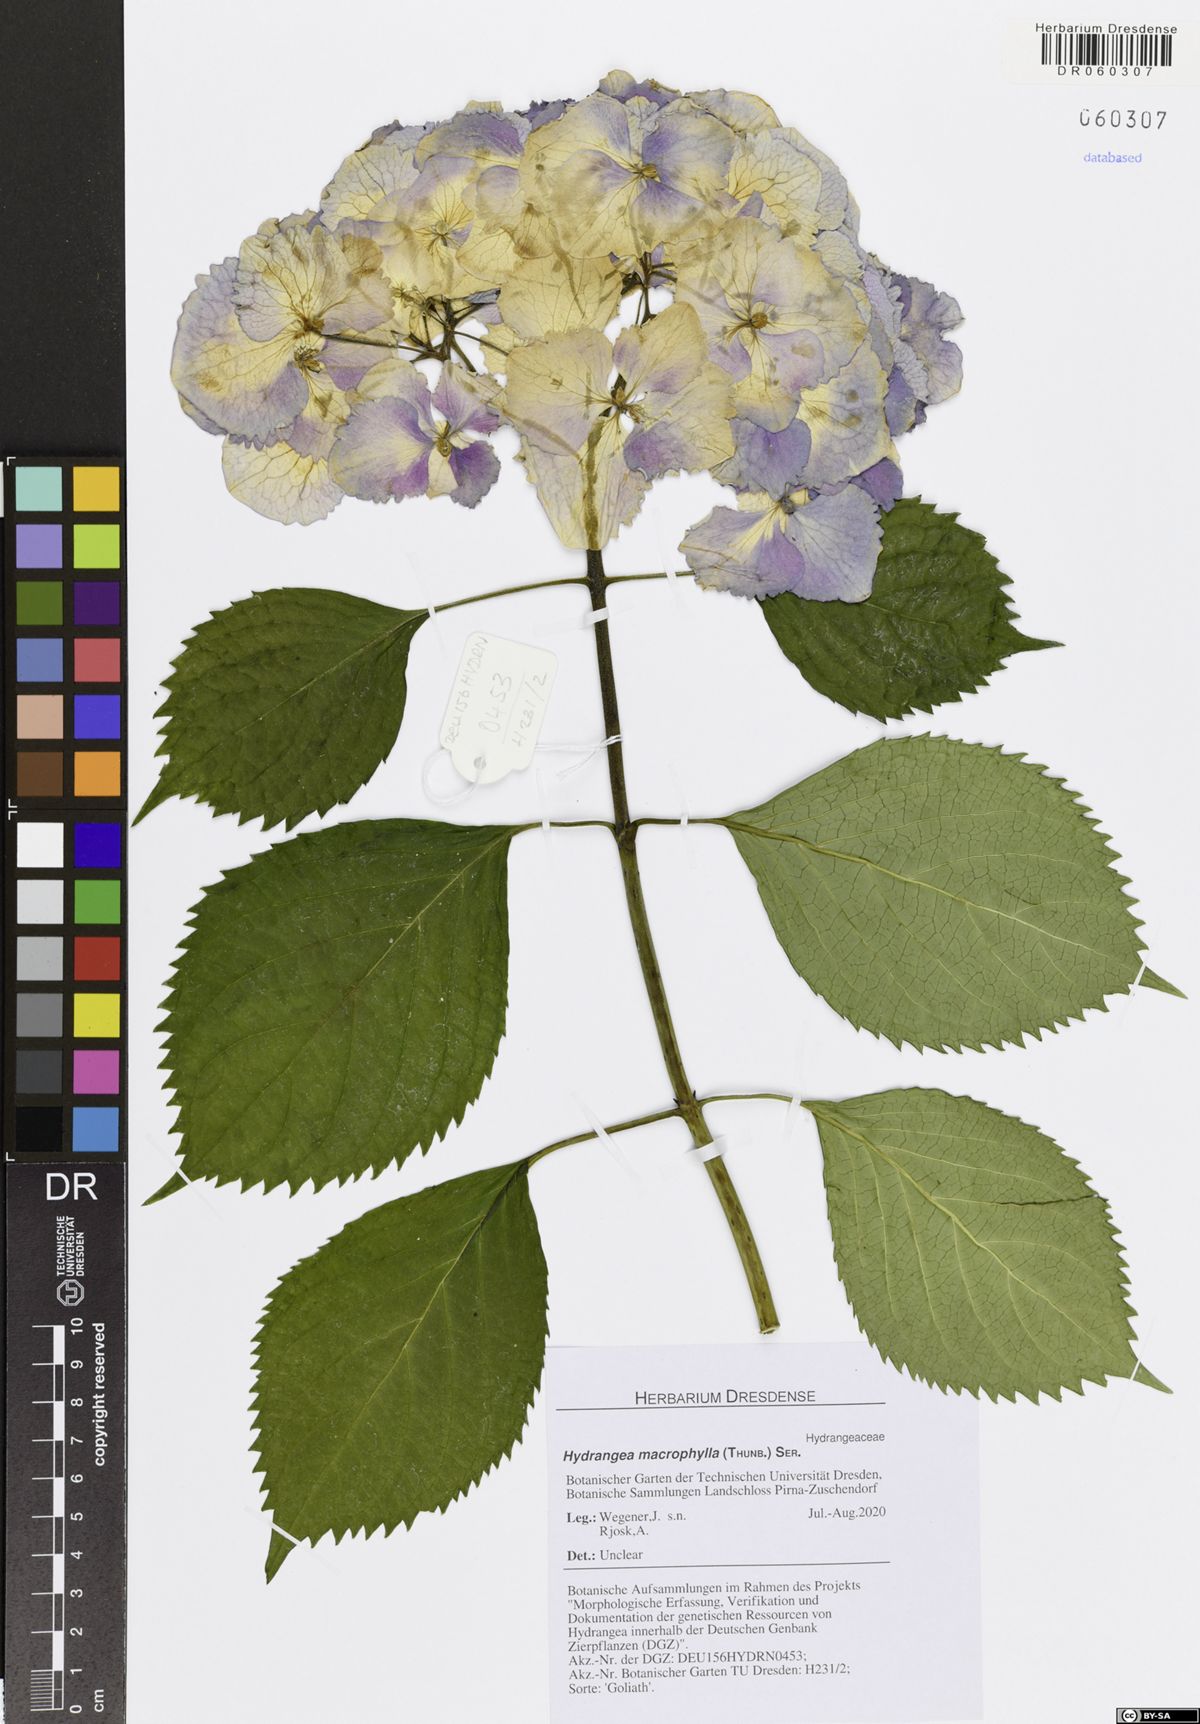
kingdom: Plantae
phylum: Tracheophyta
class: Magnoliopsida
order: Cornales
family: Hydrangeaceae
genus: Hydrangea
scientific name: Hydrangea macrophylla
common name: Hydrangea
